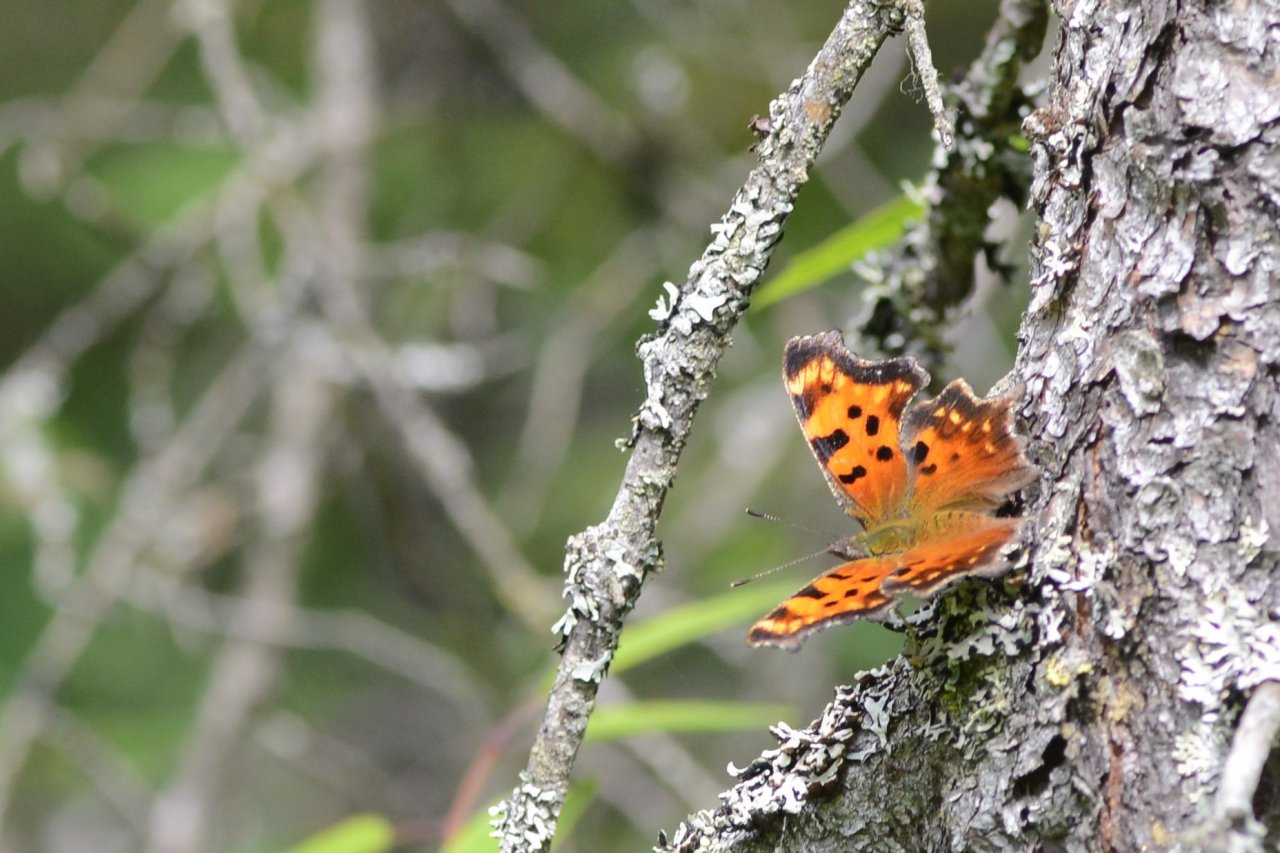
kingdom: Animalia
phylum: Arthropoda
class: Insecta
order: Lepidoptera
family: Nymphalidae
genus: Polygonia
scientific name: Polygonia faunus
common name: Green Comma
